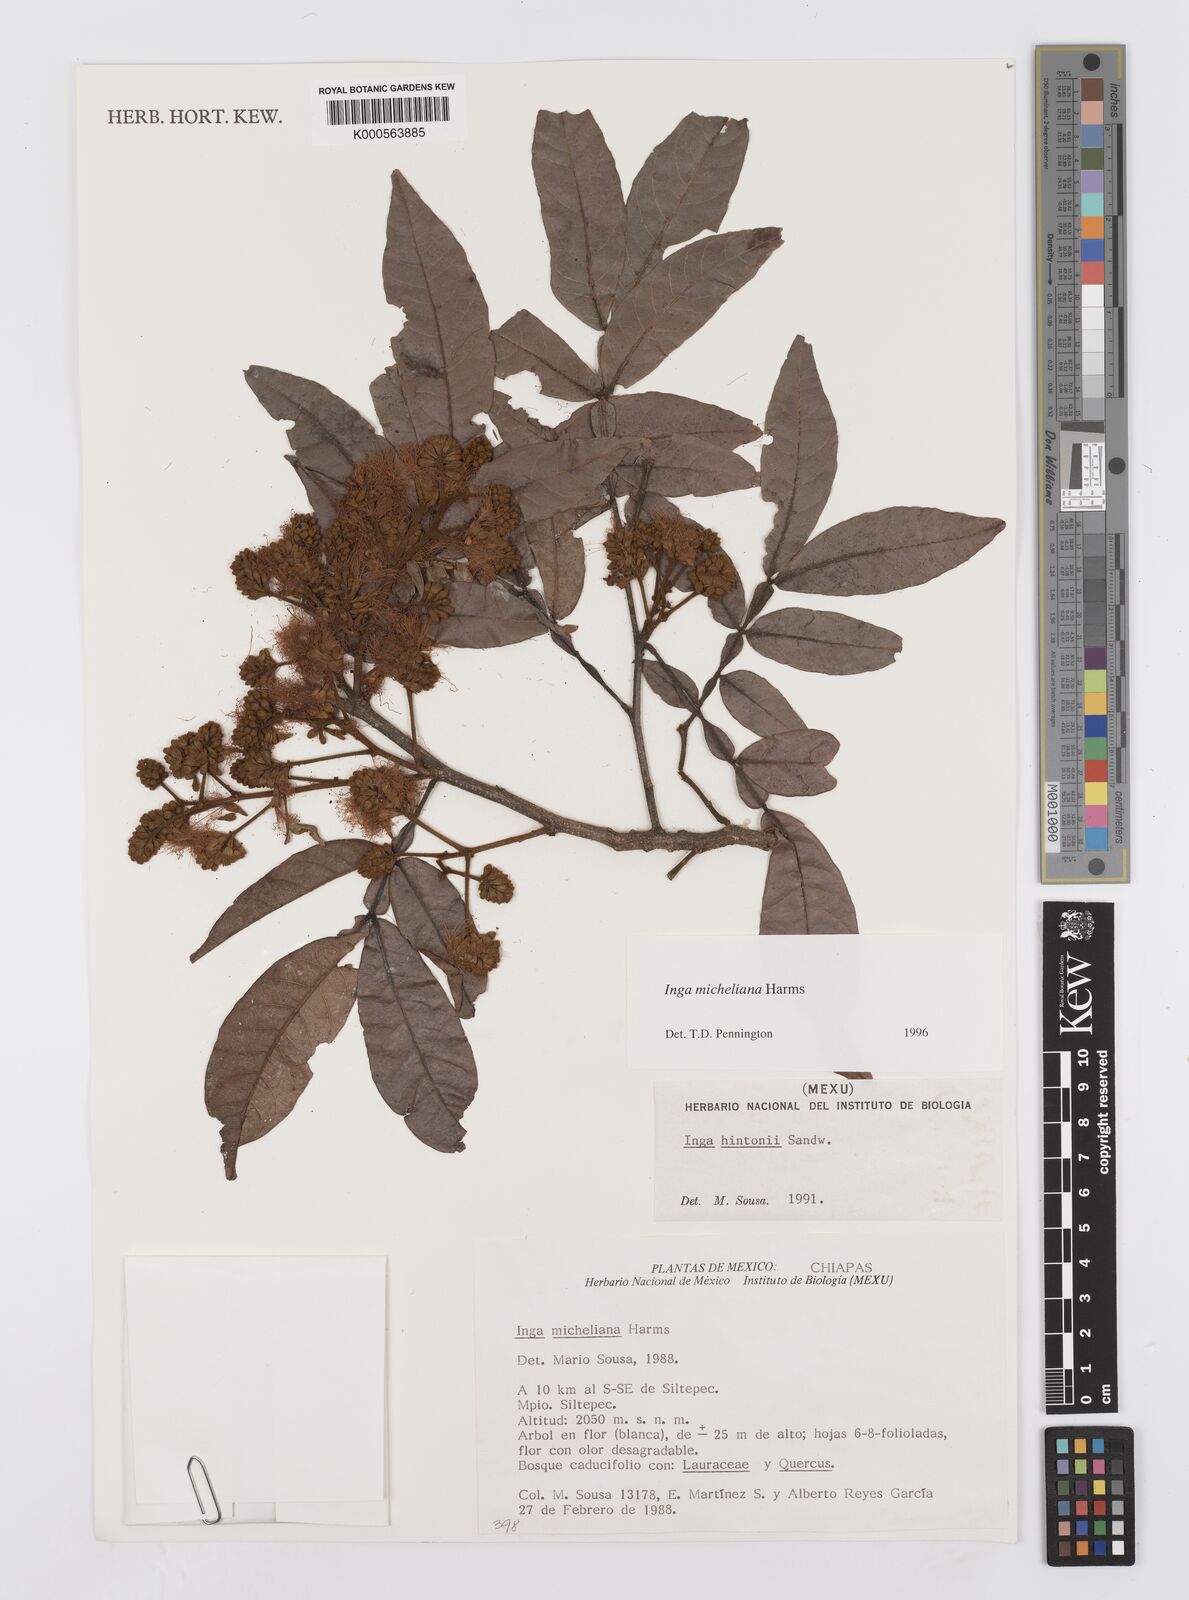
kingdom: Plantae
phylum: Tracheophyta
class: Magnoliopsida
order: Fabales
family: Fabaceae
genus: Inga
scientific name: Inga flexuosa
